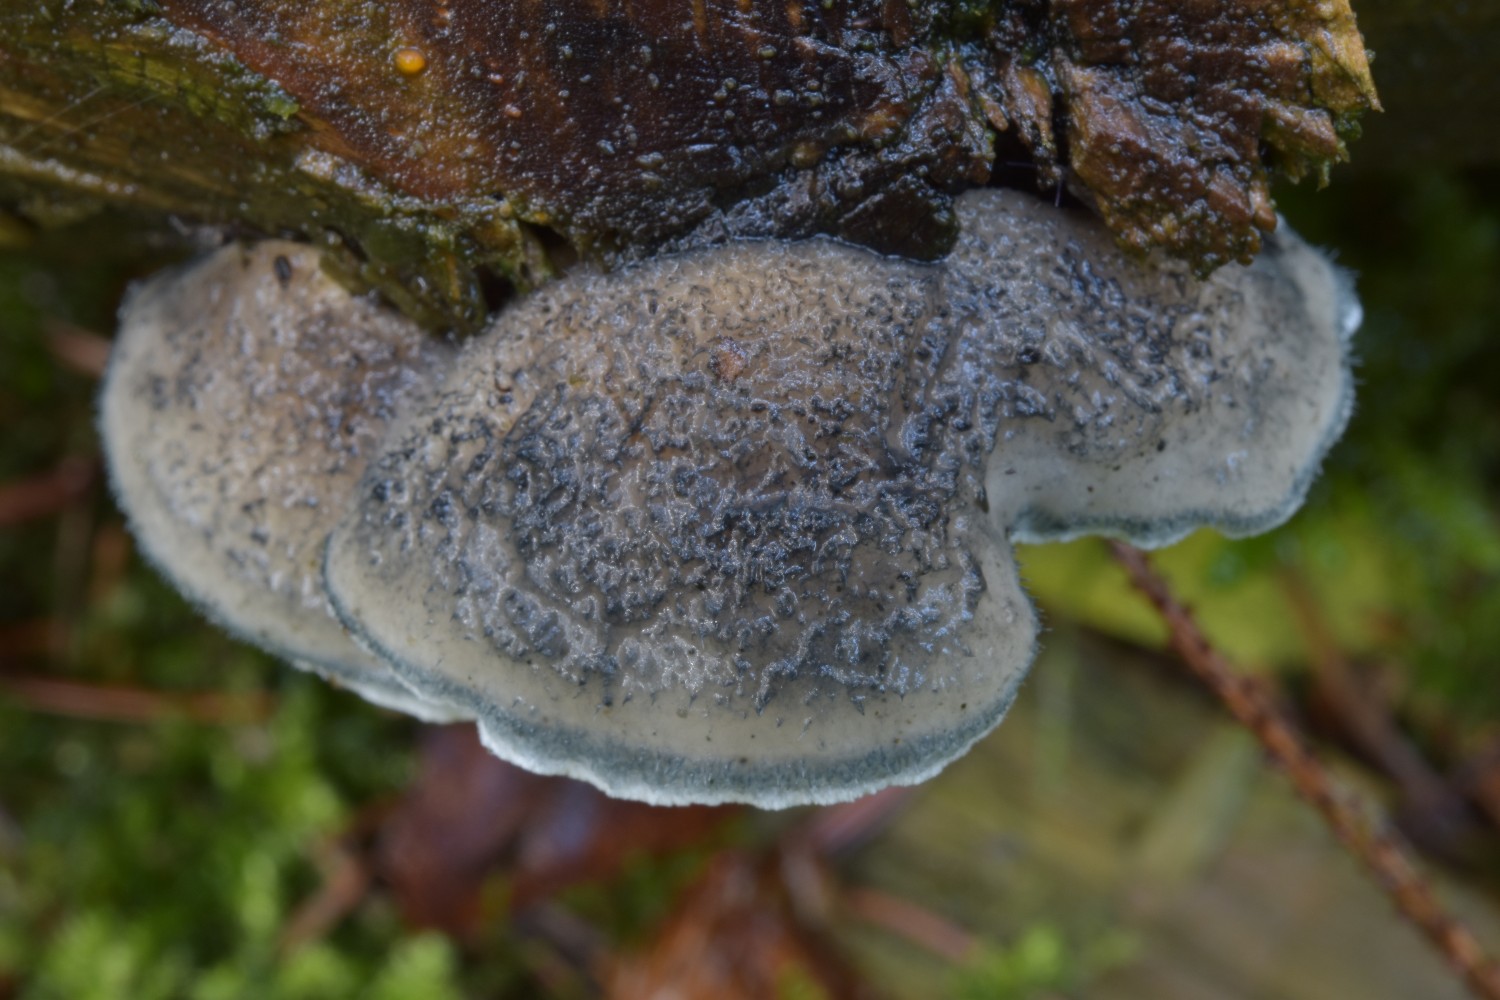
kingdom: Fungi
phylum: Basidiomycota
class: Agaricomycetes
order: Polyporales
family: Polyporaceae
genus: Cyanosporus
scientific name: Cyanosporus caesius
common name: blålig kødporesvamp
